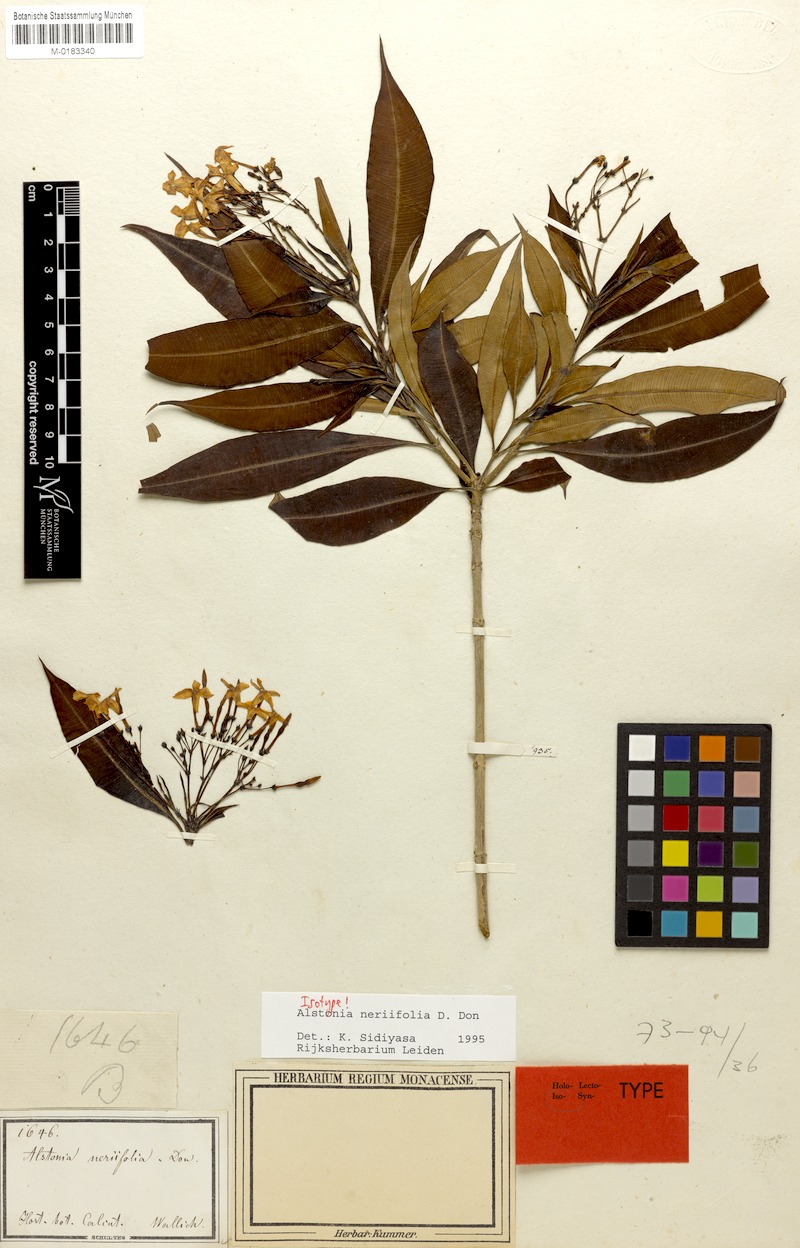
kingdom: Plantae
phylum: Tracheophyta
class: Magnoliopsida
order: Gentianales
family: Apocynaceae
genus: Alstonia
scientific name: Alstonia neriifolia
